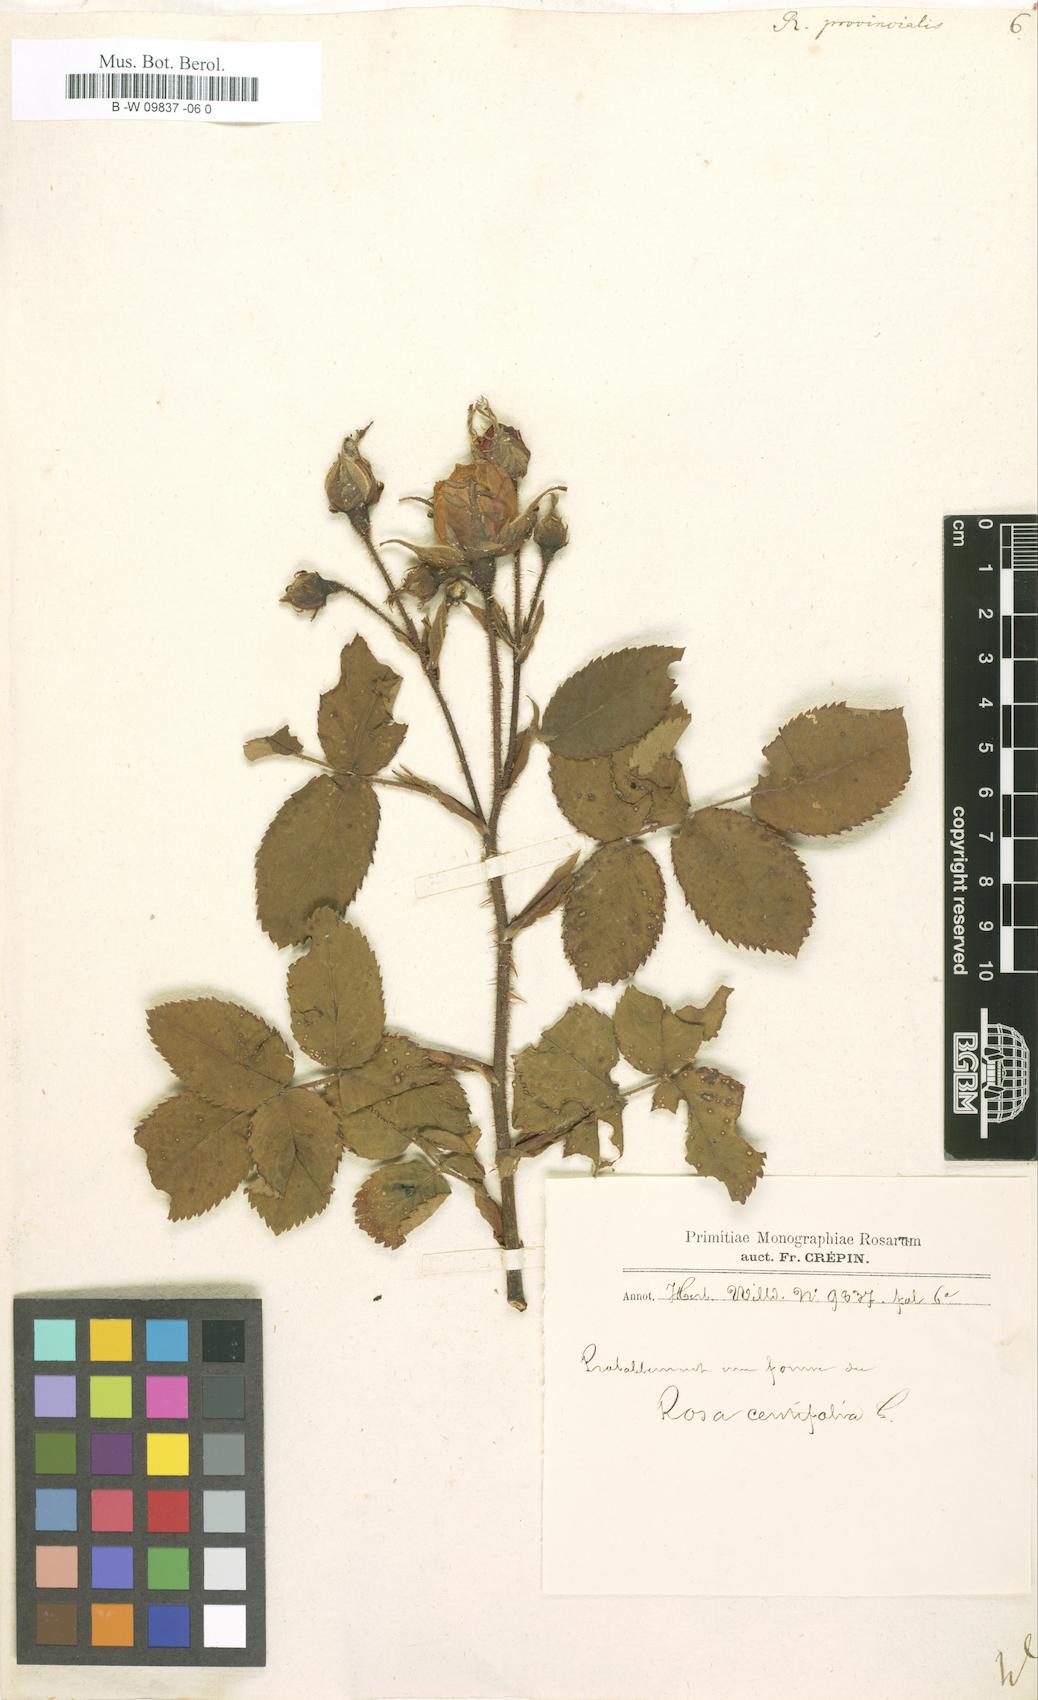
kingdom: Plantae
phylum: Tracheophyta
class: Magnoliopsida
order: Rosales
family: Rosaceae
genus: Rosa
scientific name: Rosa
